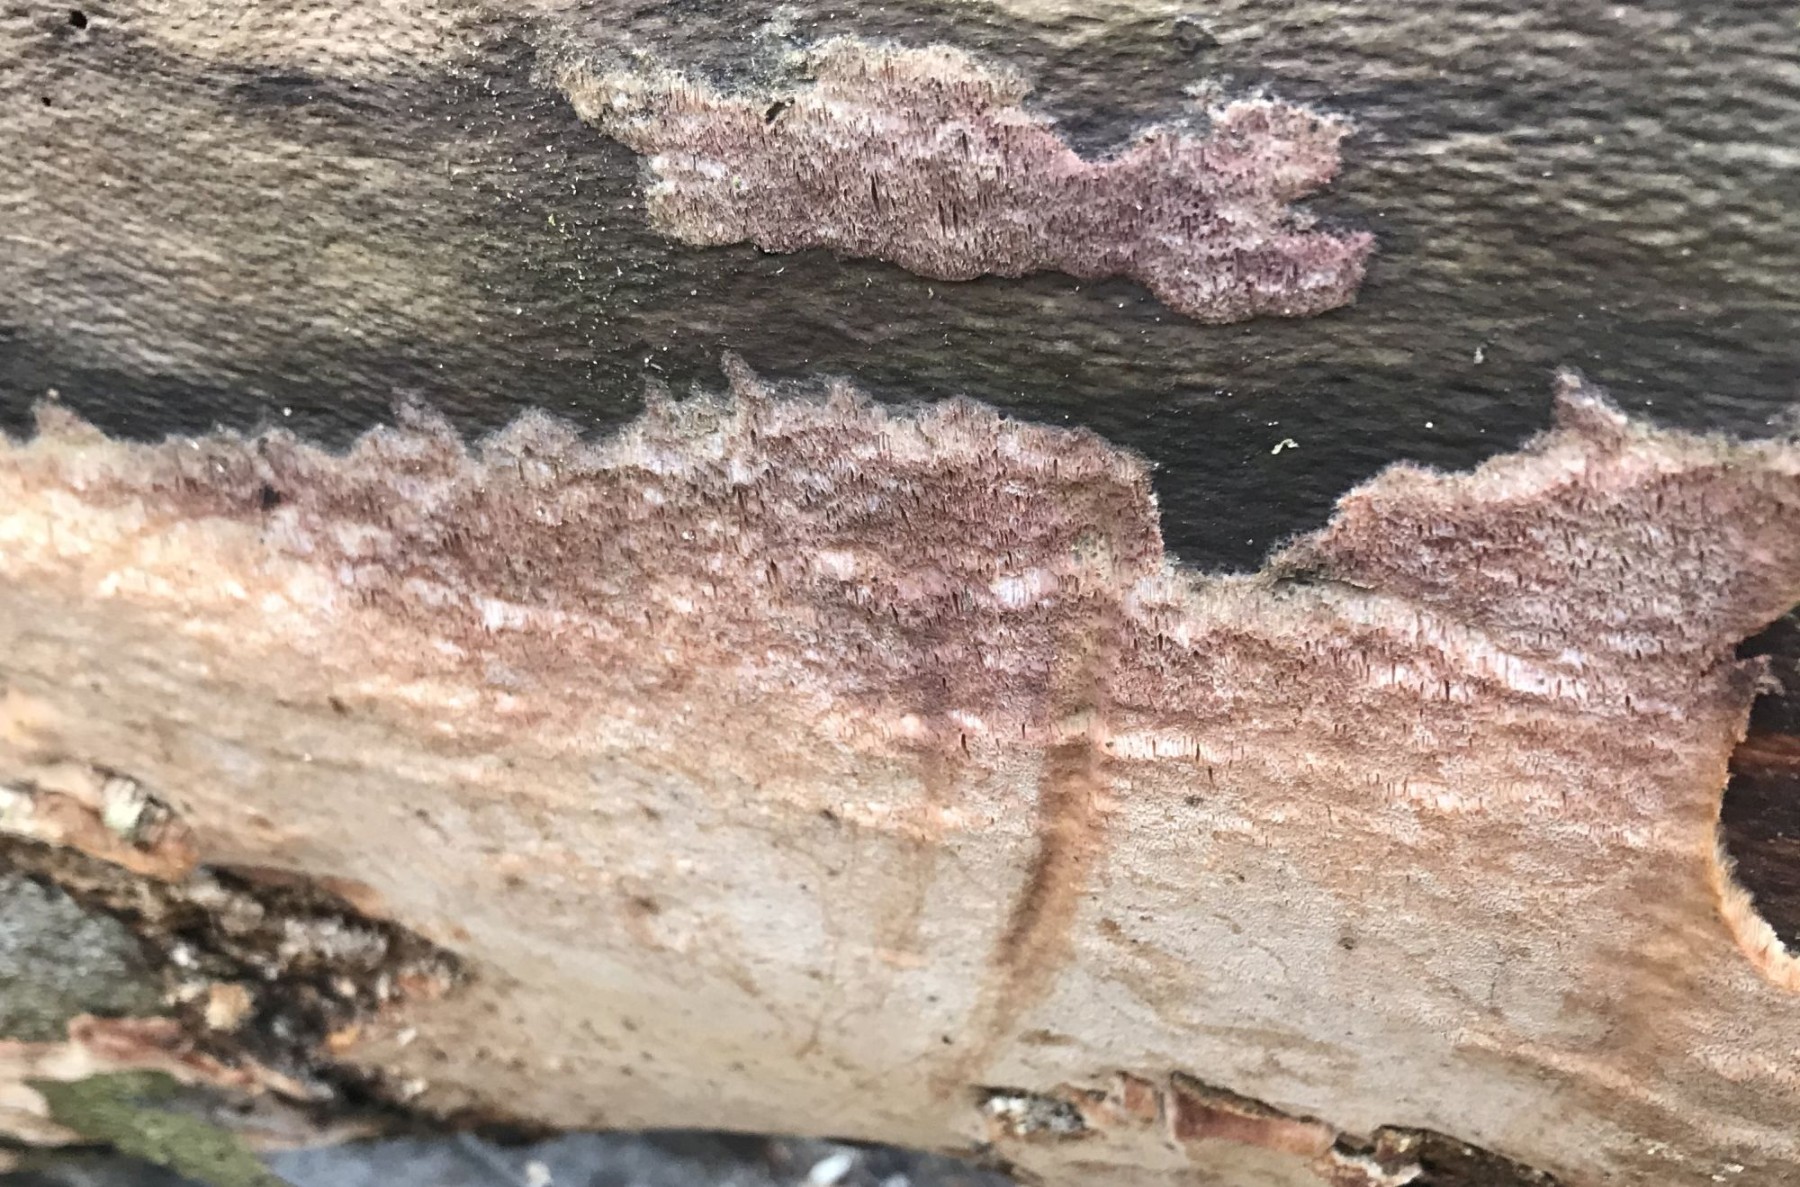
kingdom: Fungi
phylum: Basidiomycota
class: Agaricomycetes
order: Polyporales
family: Meruliaceae
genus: Mycoacia
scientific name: Mycoacia gilvescens
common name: rosa pastelporesvamp
